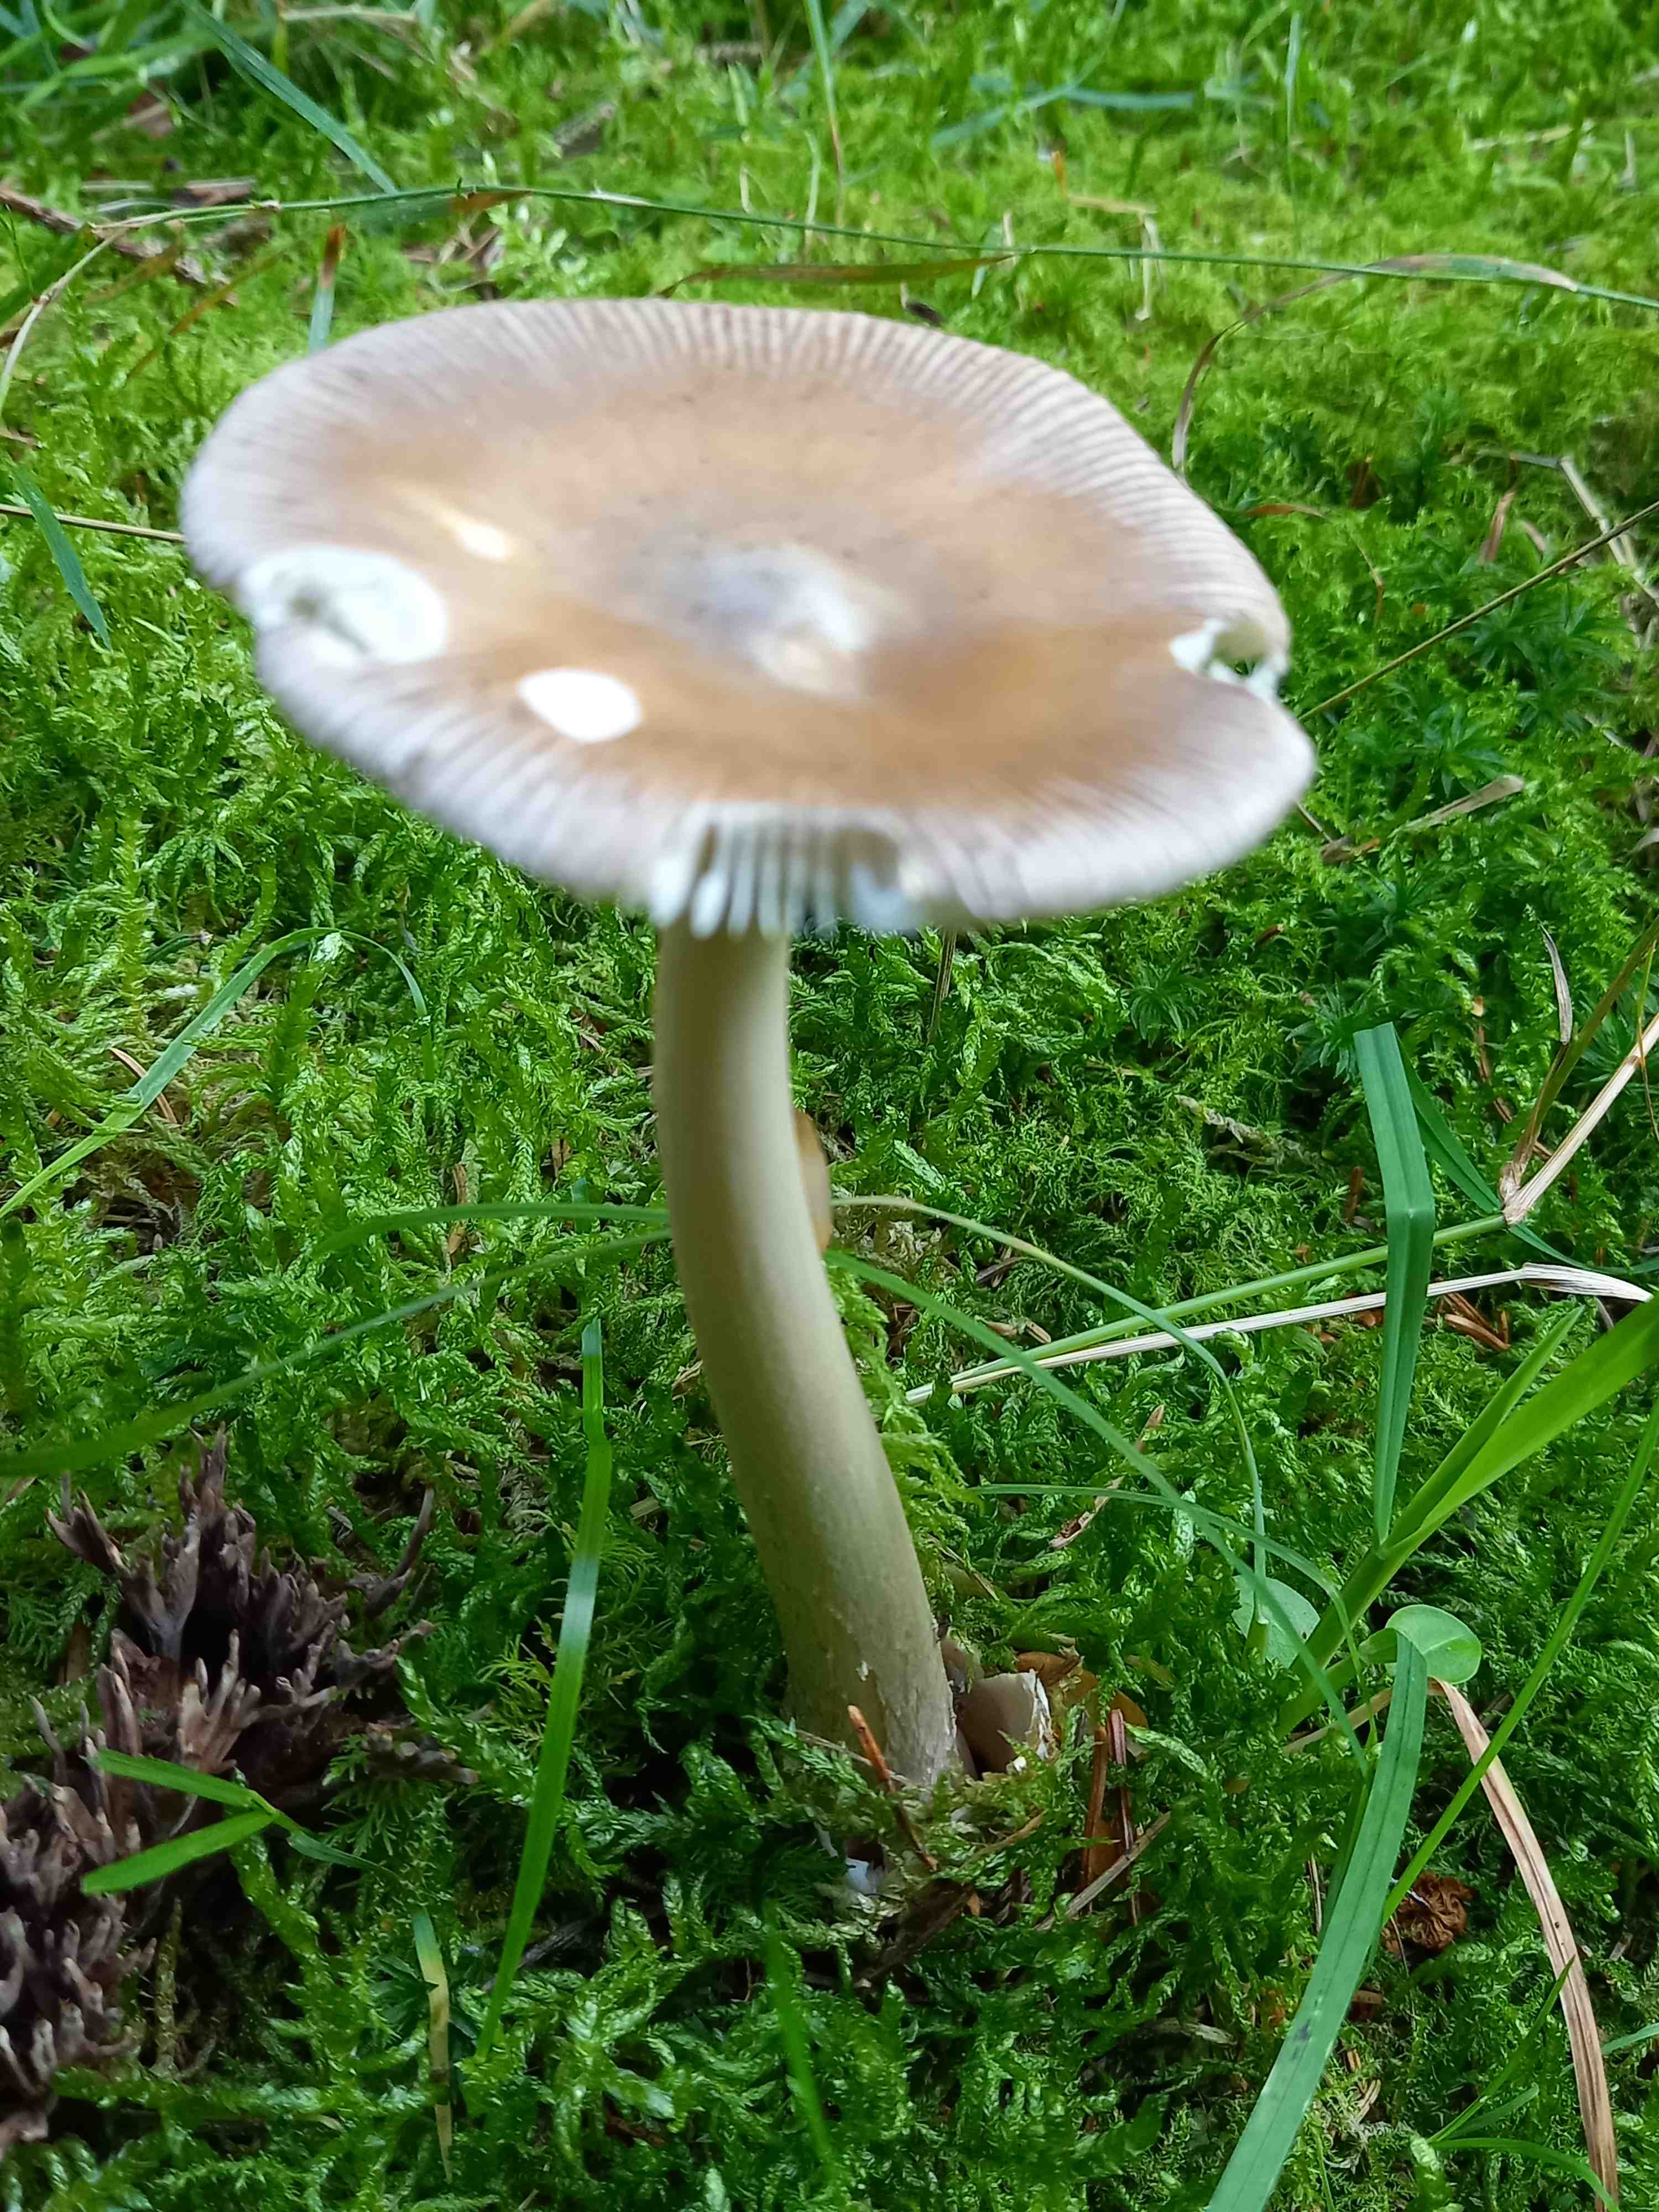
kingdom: Fungi
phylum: Basidiomycota
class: Agaricomycetes
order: Agaricales
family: Amanitaceae
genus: Amanita
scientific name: Amanita fulva
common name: brun kam-fluesvamp
